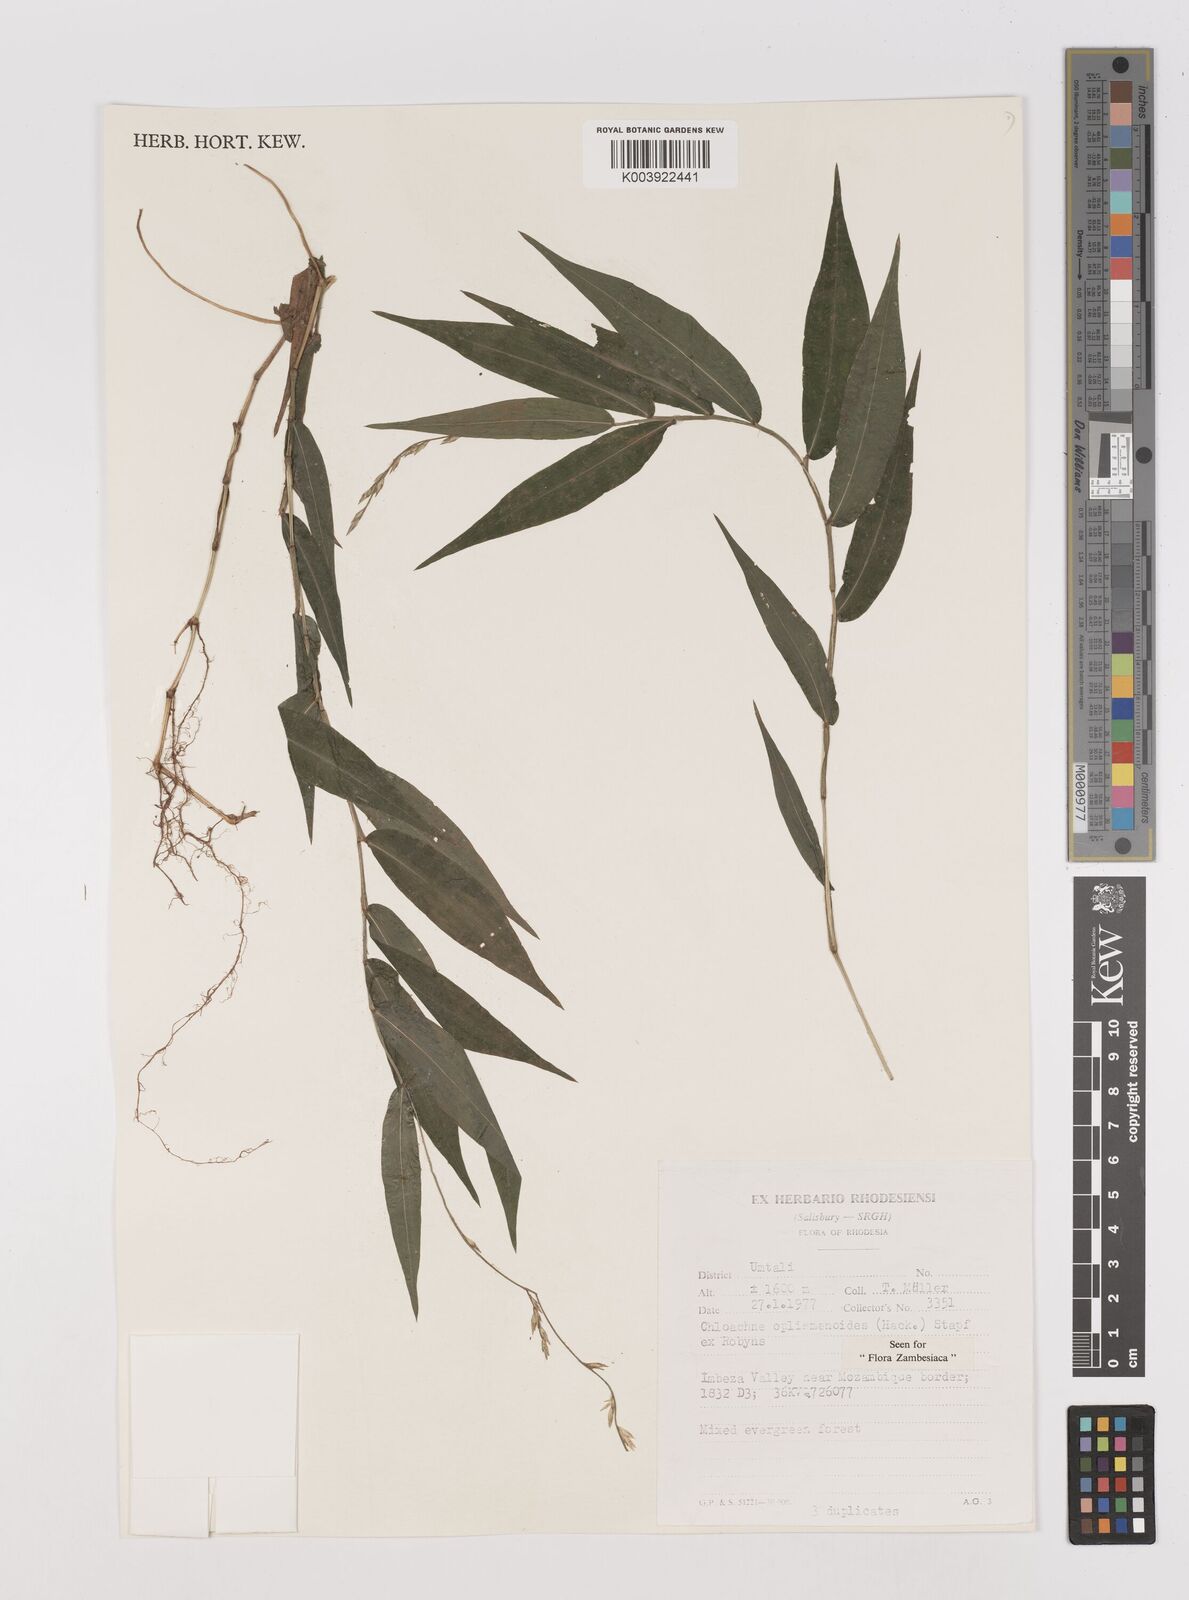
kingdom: Plantae
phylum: Tracheophyta
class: Liliopsida
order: Poales
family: Poaceae
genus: Poecilostachys
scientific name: Poecilostachys oplismenoides
